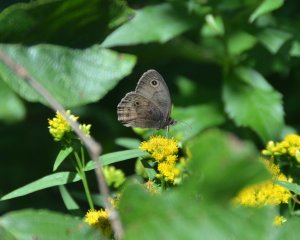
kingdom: Animalia
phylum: Arthropoda
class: Insecta
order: Lepidoptera
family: Nymphalidae
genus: Cercyonis
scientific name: Cercyonis pegala
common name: Common Wood-Nymph
